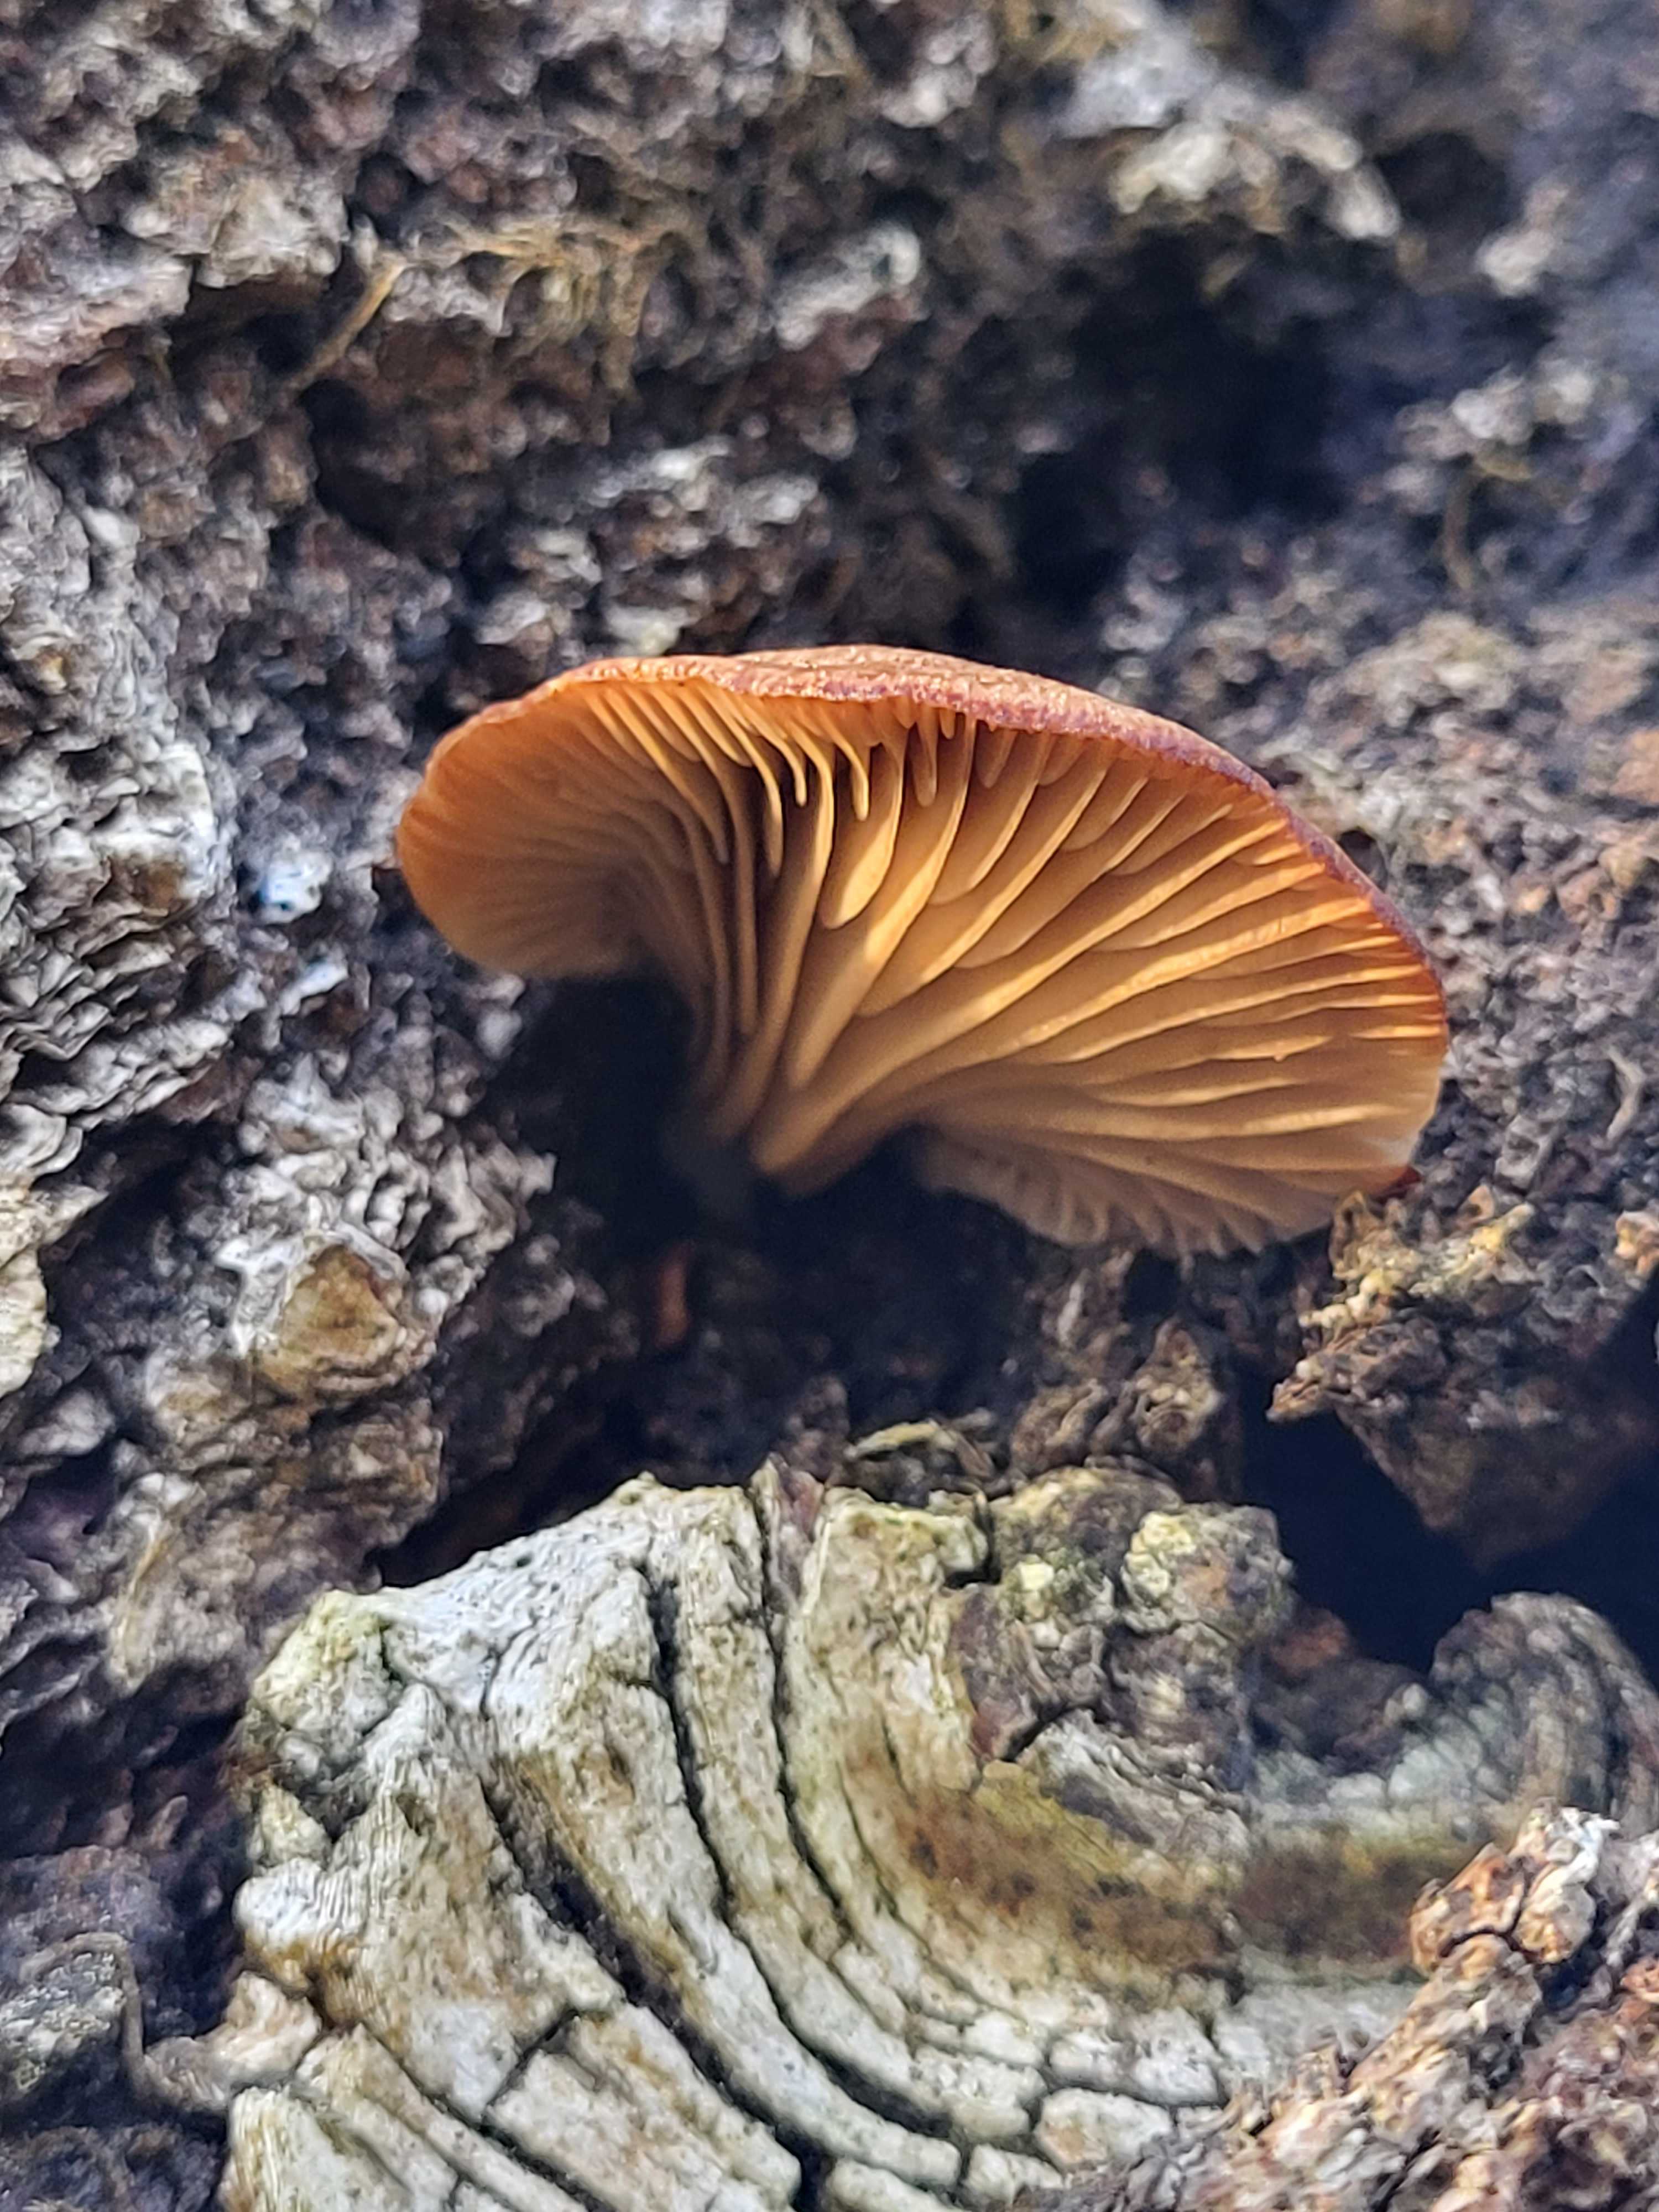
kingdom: Fungi
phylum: Basidiomycota
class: Agaricomycetes
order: Agaricales
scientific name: Agaricales
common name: champignonordenen
